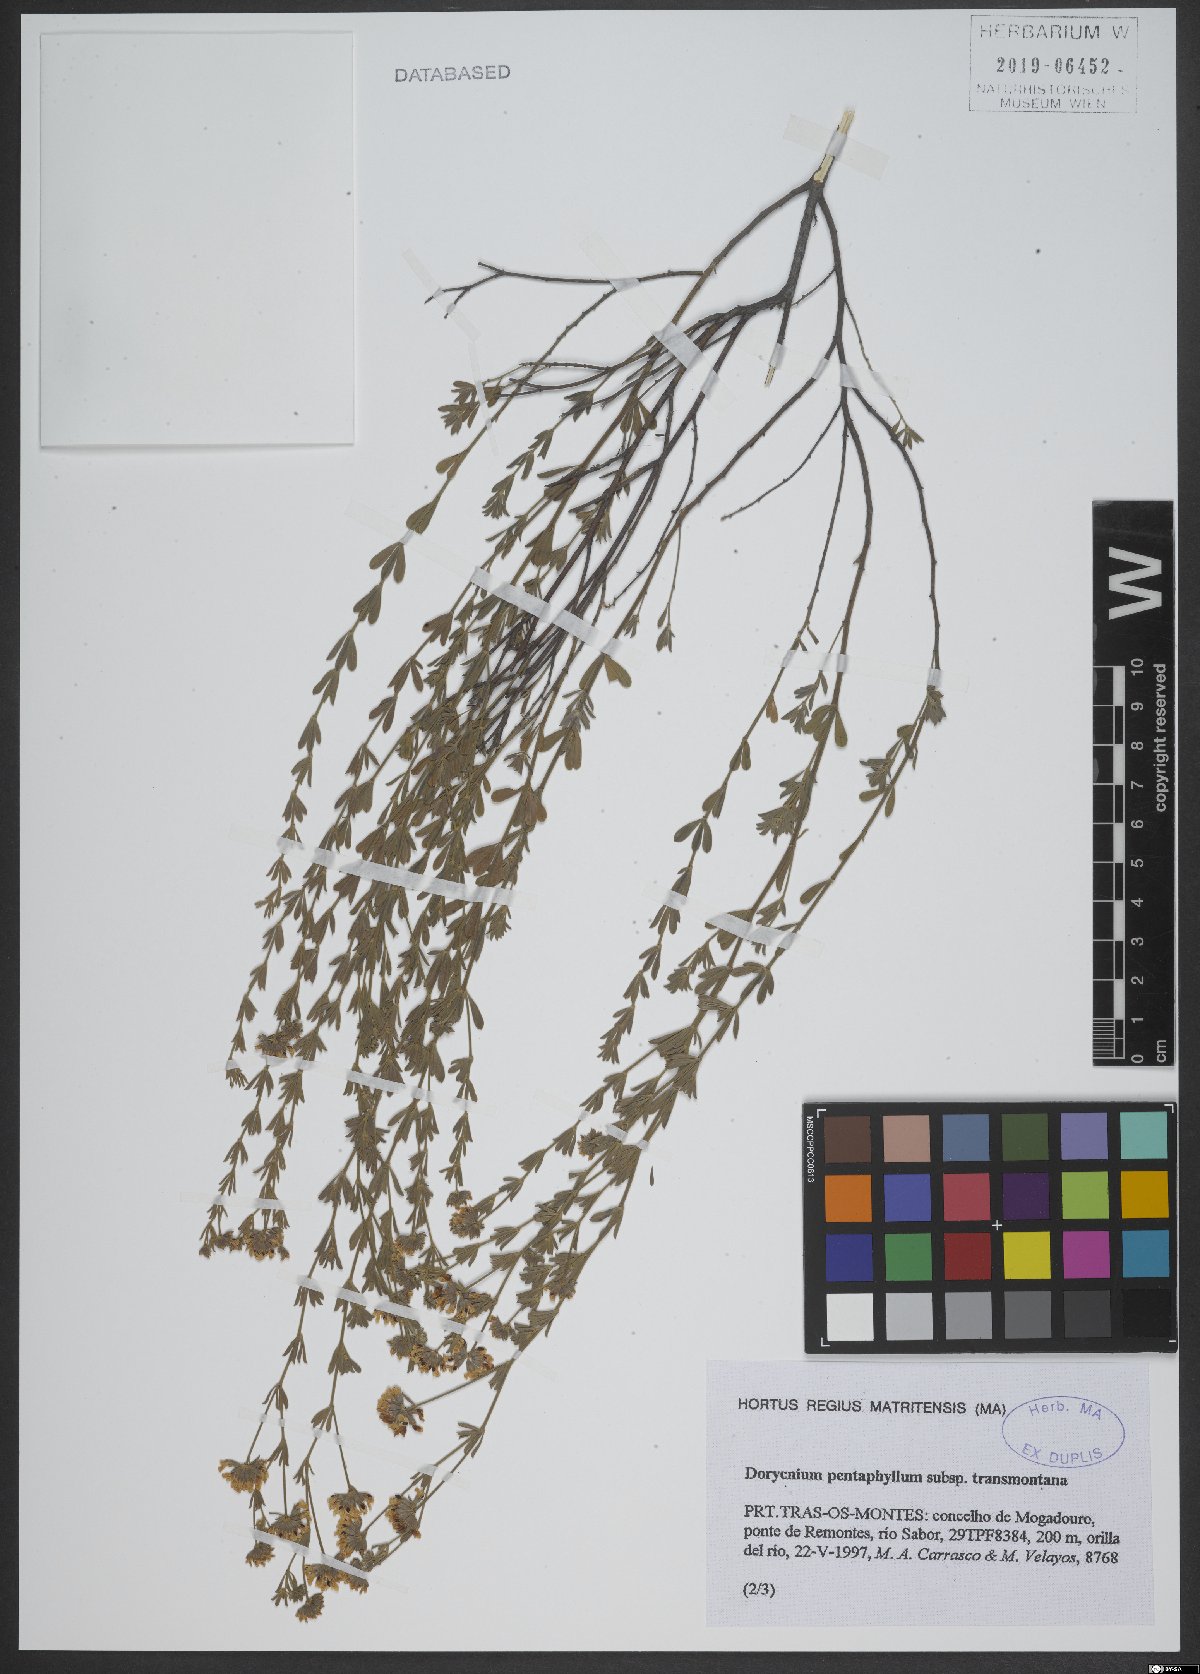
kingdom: Plantae
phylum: Tracheophyta
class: Magnoliopsida
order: Fabales
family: Fabaceae
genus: Lotus
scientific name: Lotus dorycnium
